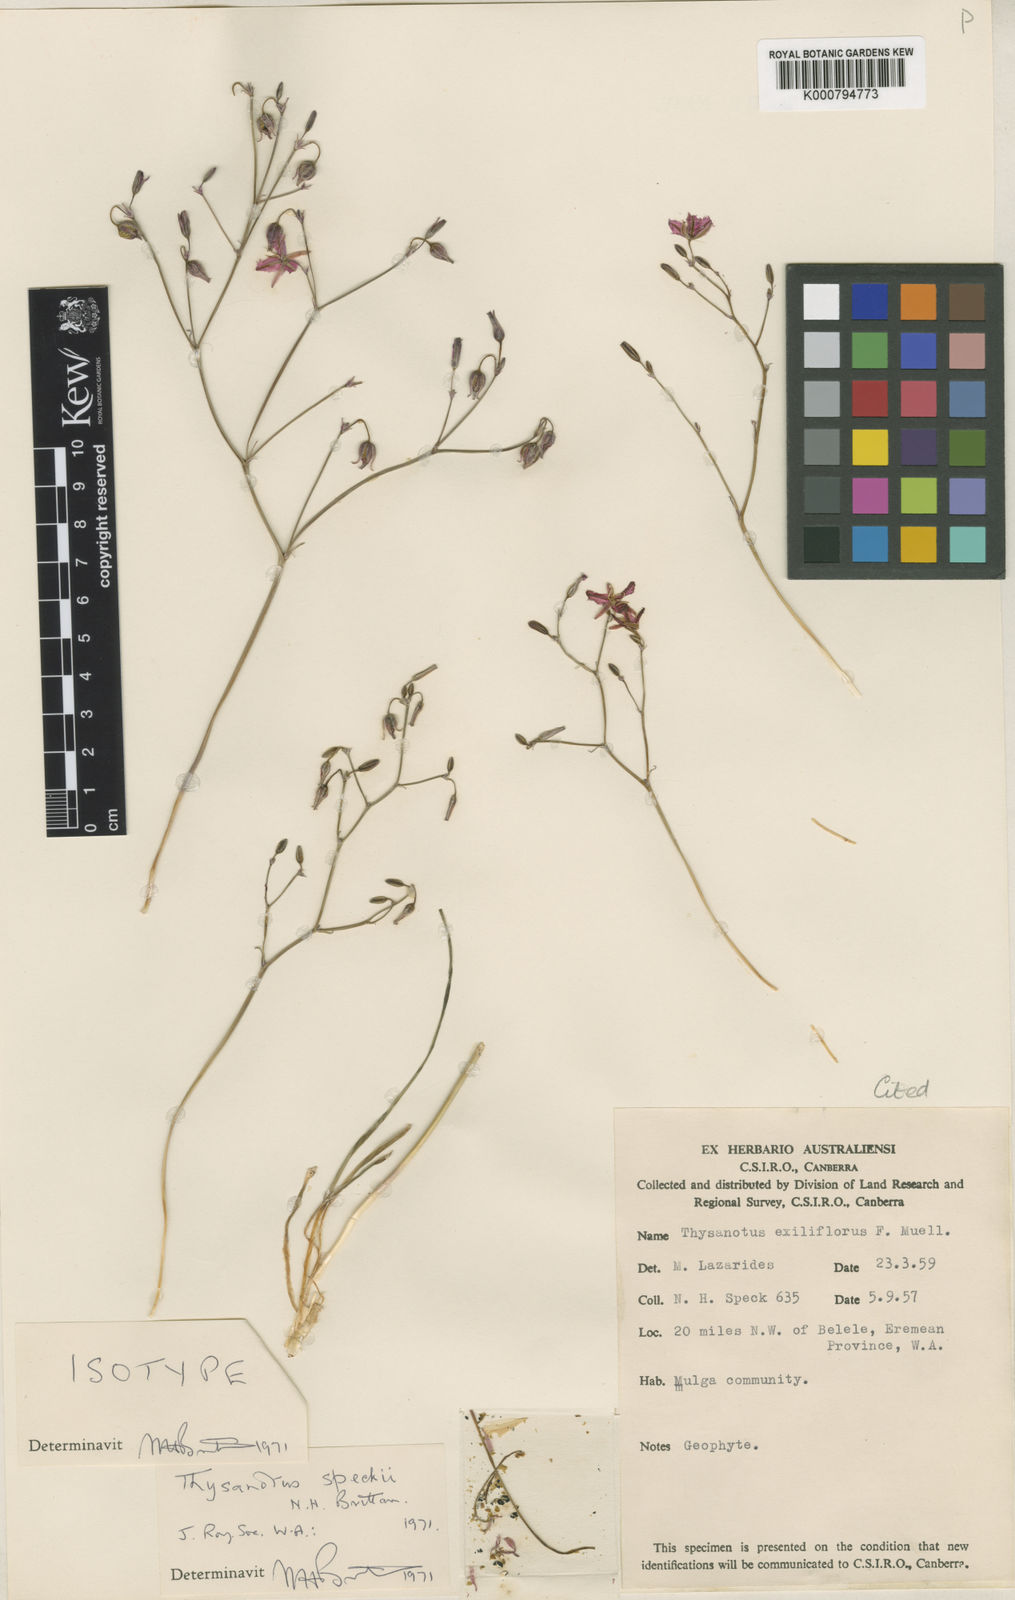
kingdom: Plantae
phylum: Tracheophyta
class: Liliopsida
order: Asparagales
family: Asparagaceae
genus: Thysanotus
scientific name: Thysanotus speckii
